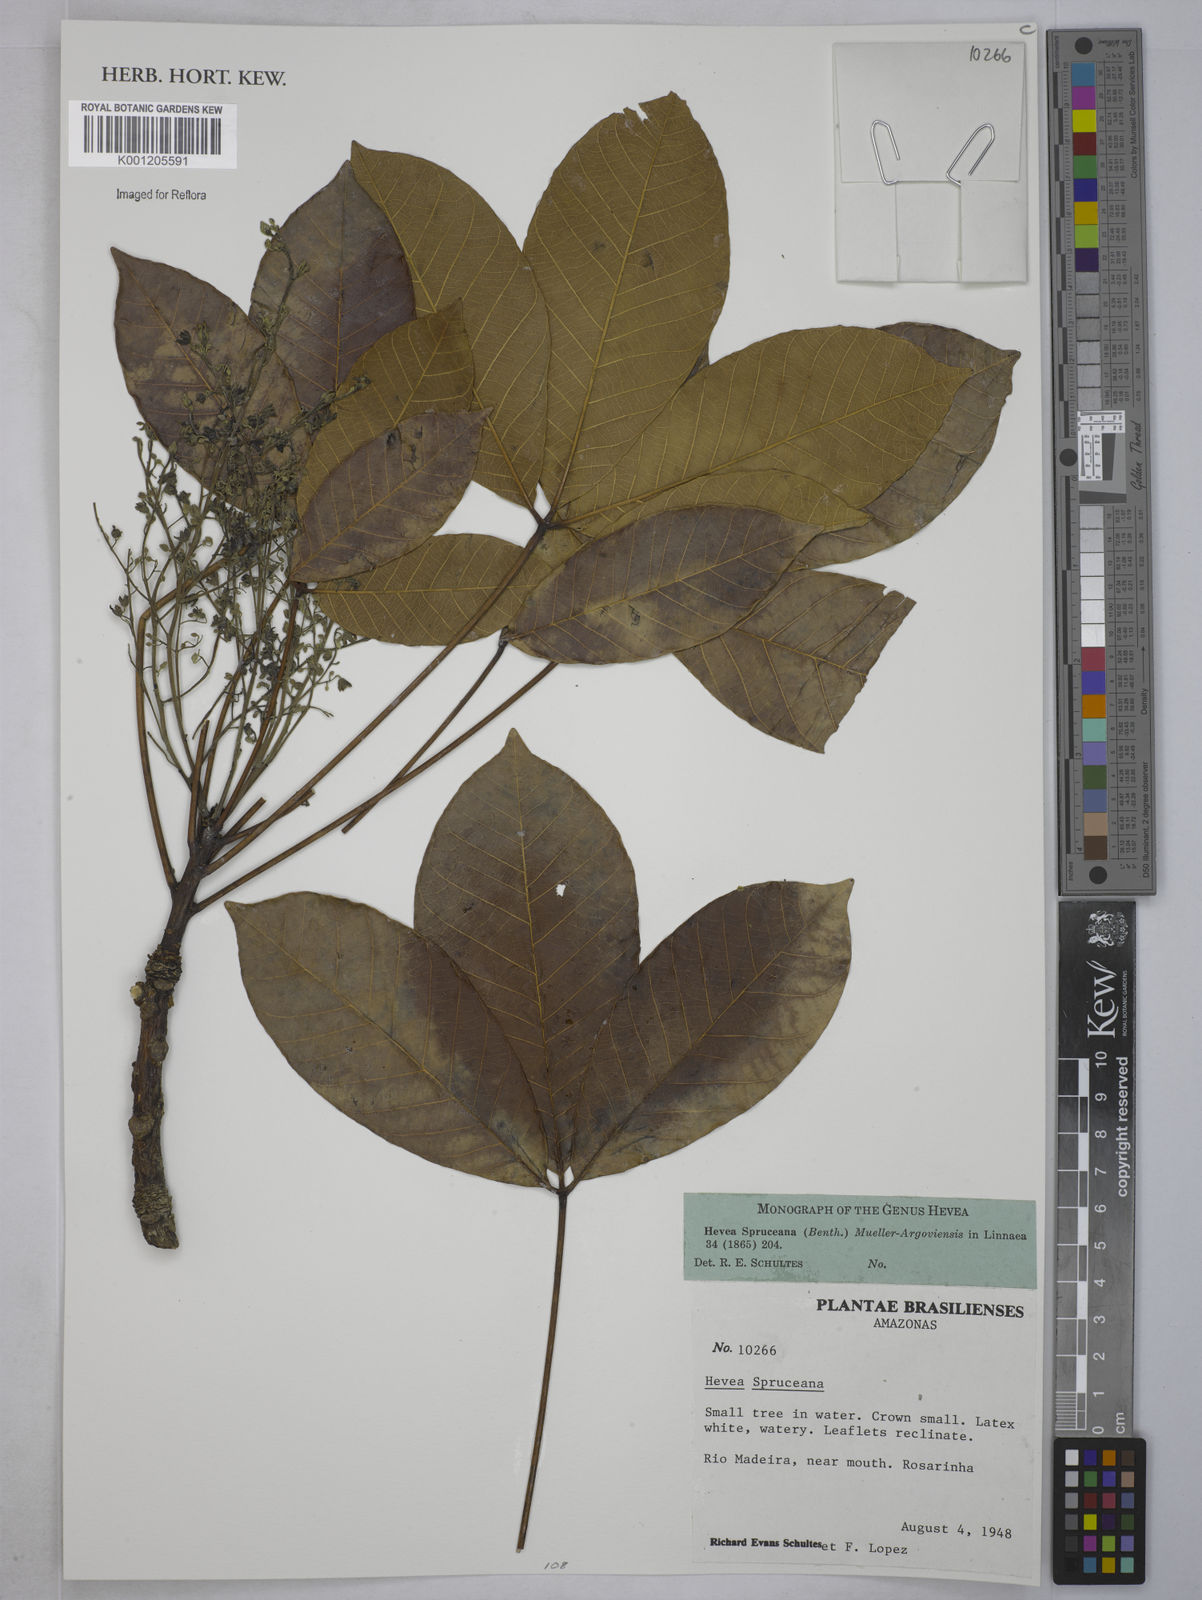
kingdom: Plantae
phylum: Tracheophyta
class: Magnoliopsida
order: Malpighiales
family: Euphorbiaceae
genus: Hevea
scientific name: Hevea
